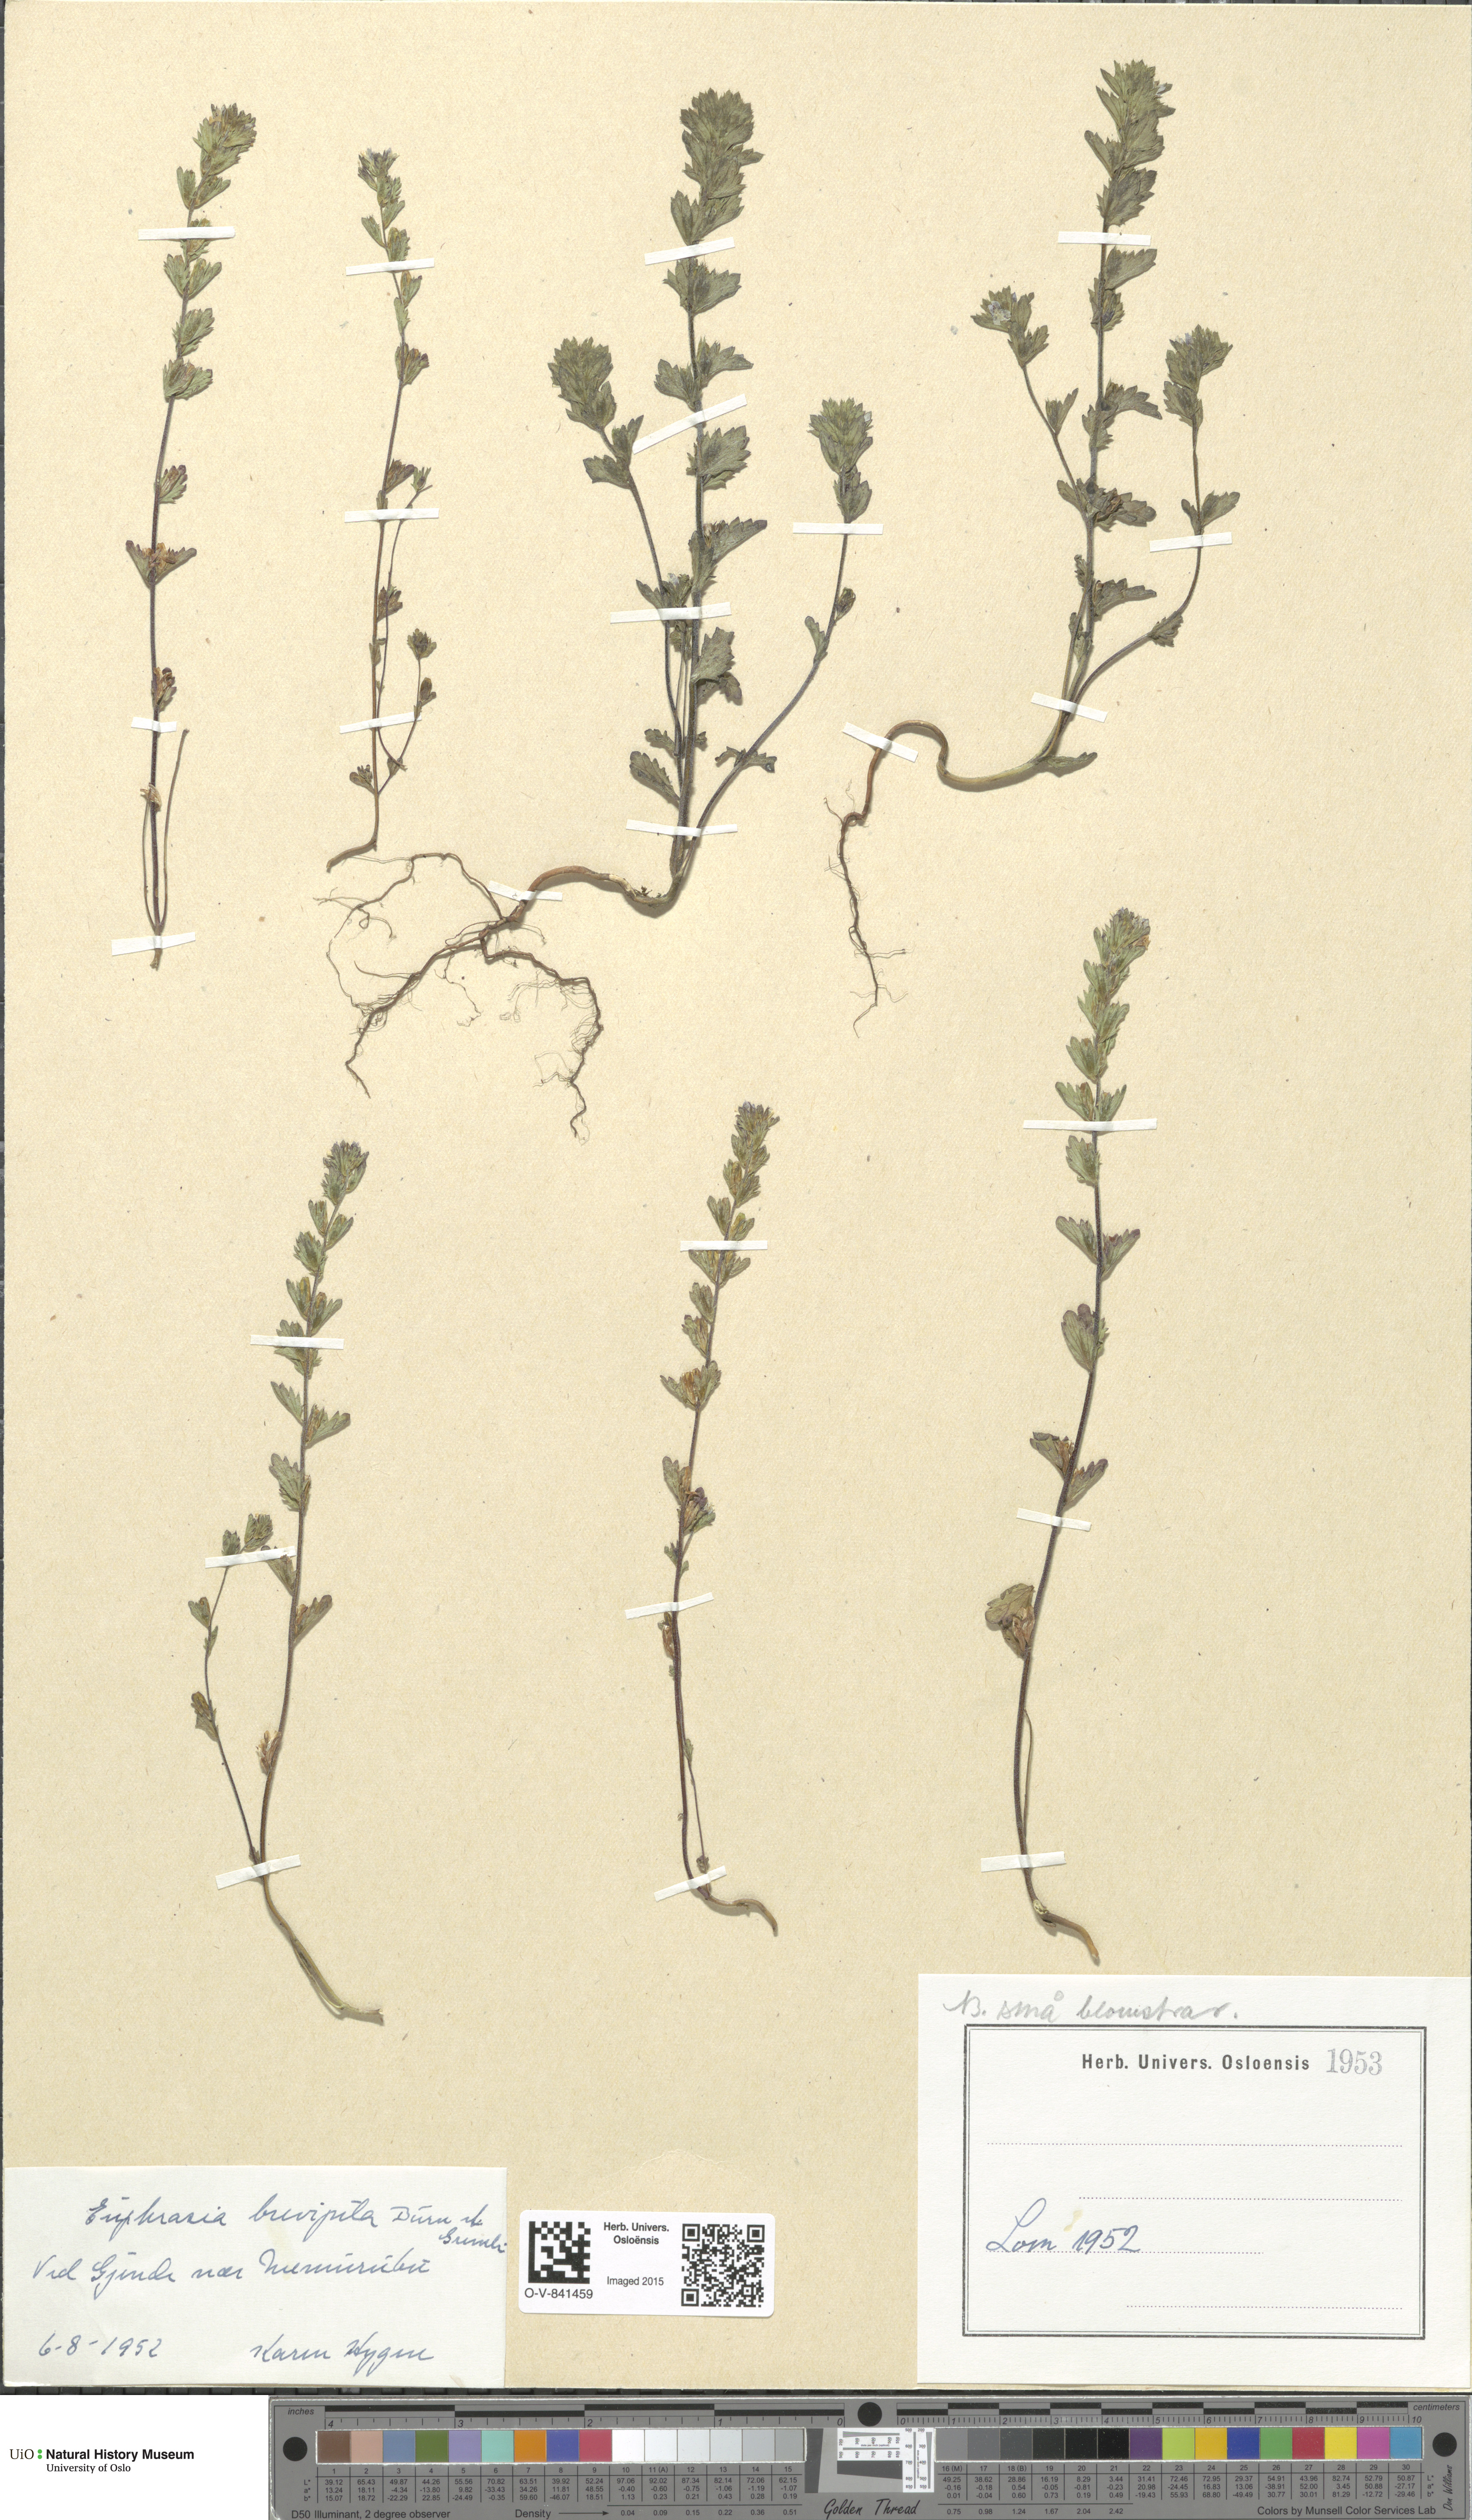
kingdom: Plantae
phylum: Tracheophyta
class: Magnoliopsida
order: Lamiales
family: Orobanchaceae
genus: Euphrasia
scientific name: Euphrasia vernalis
